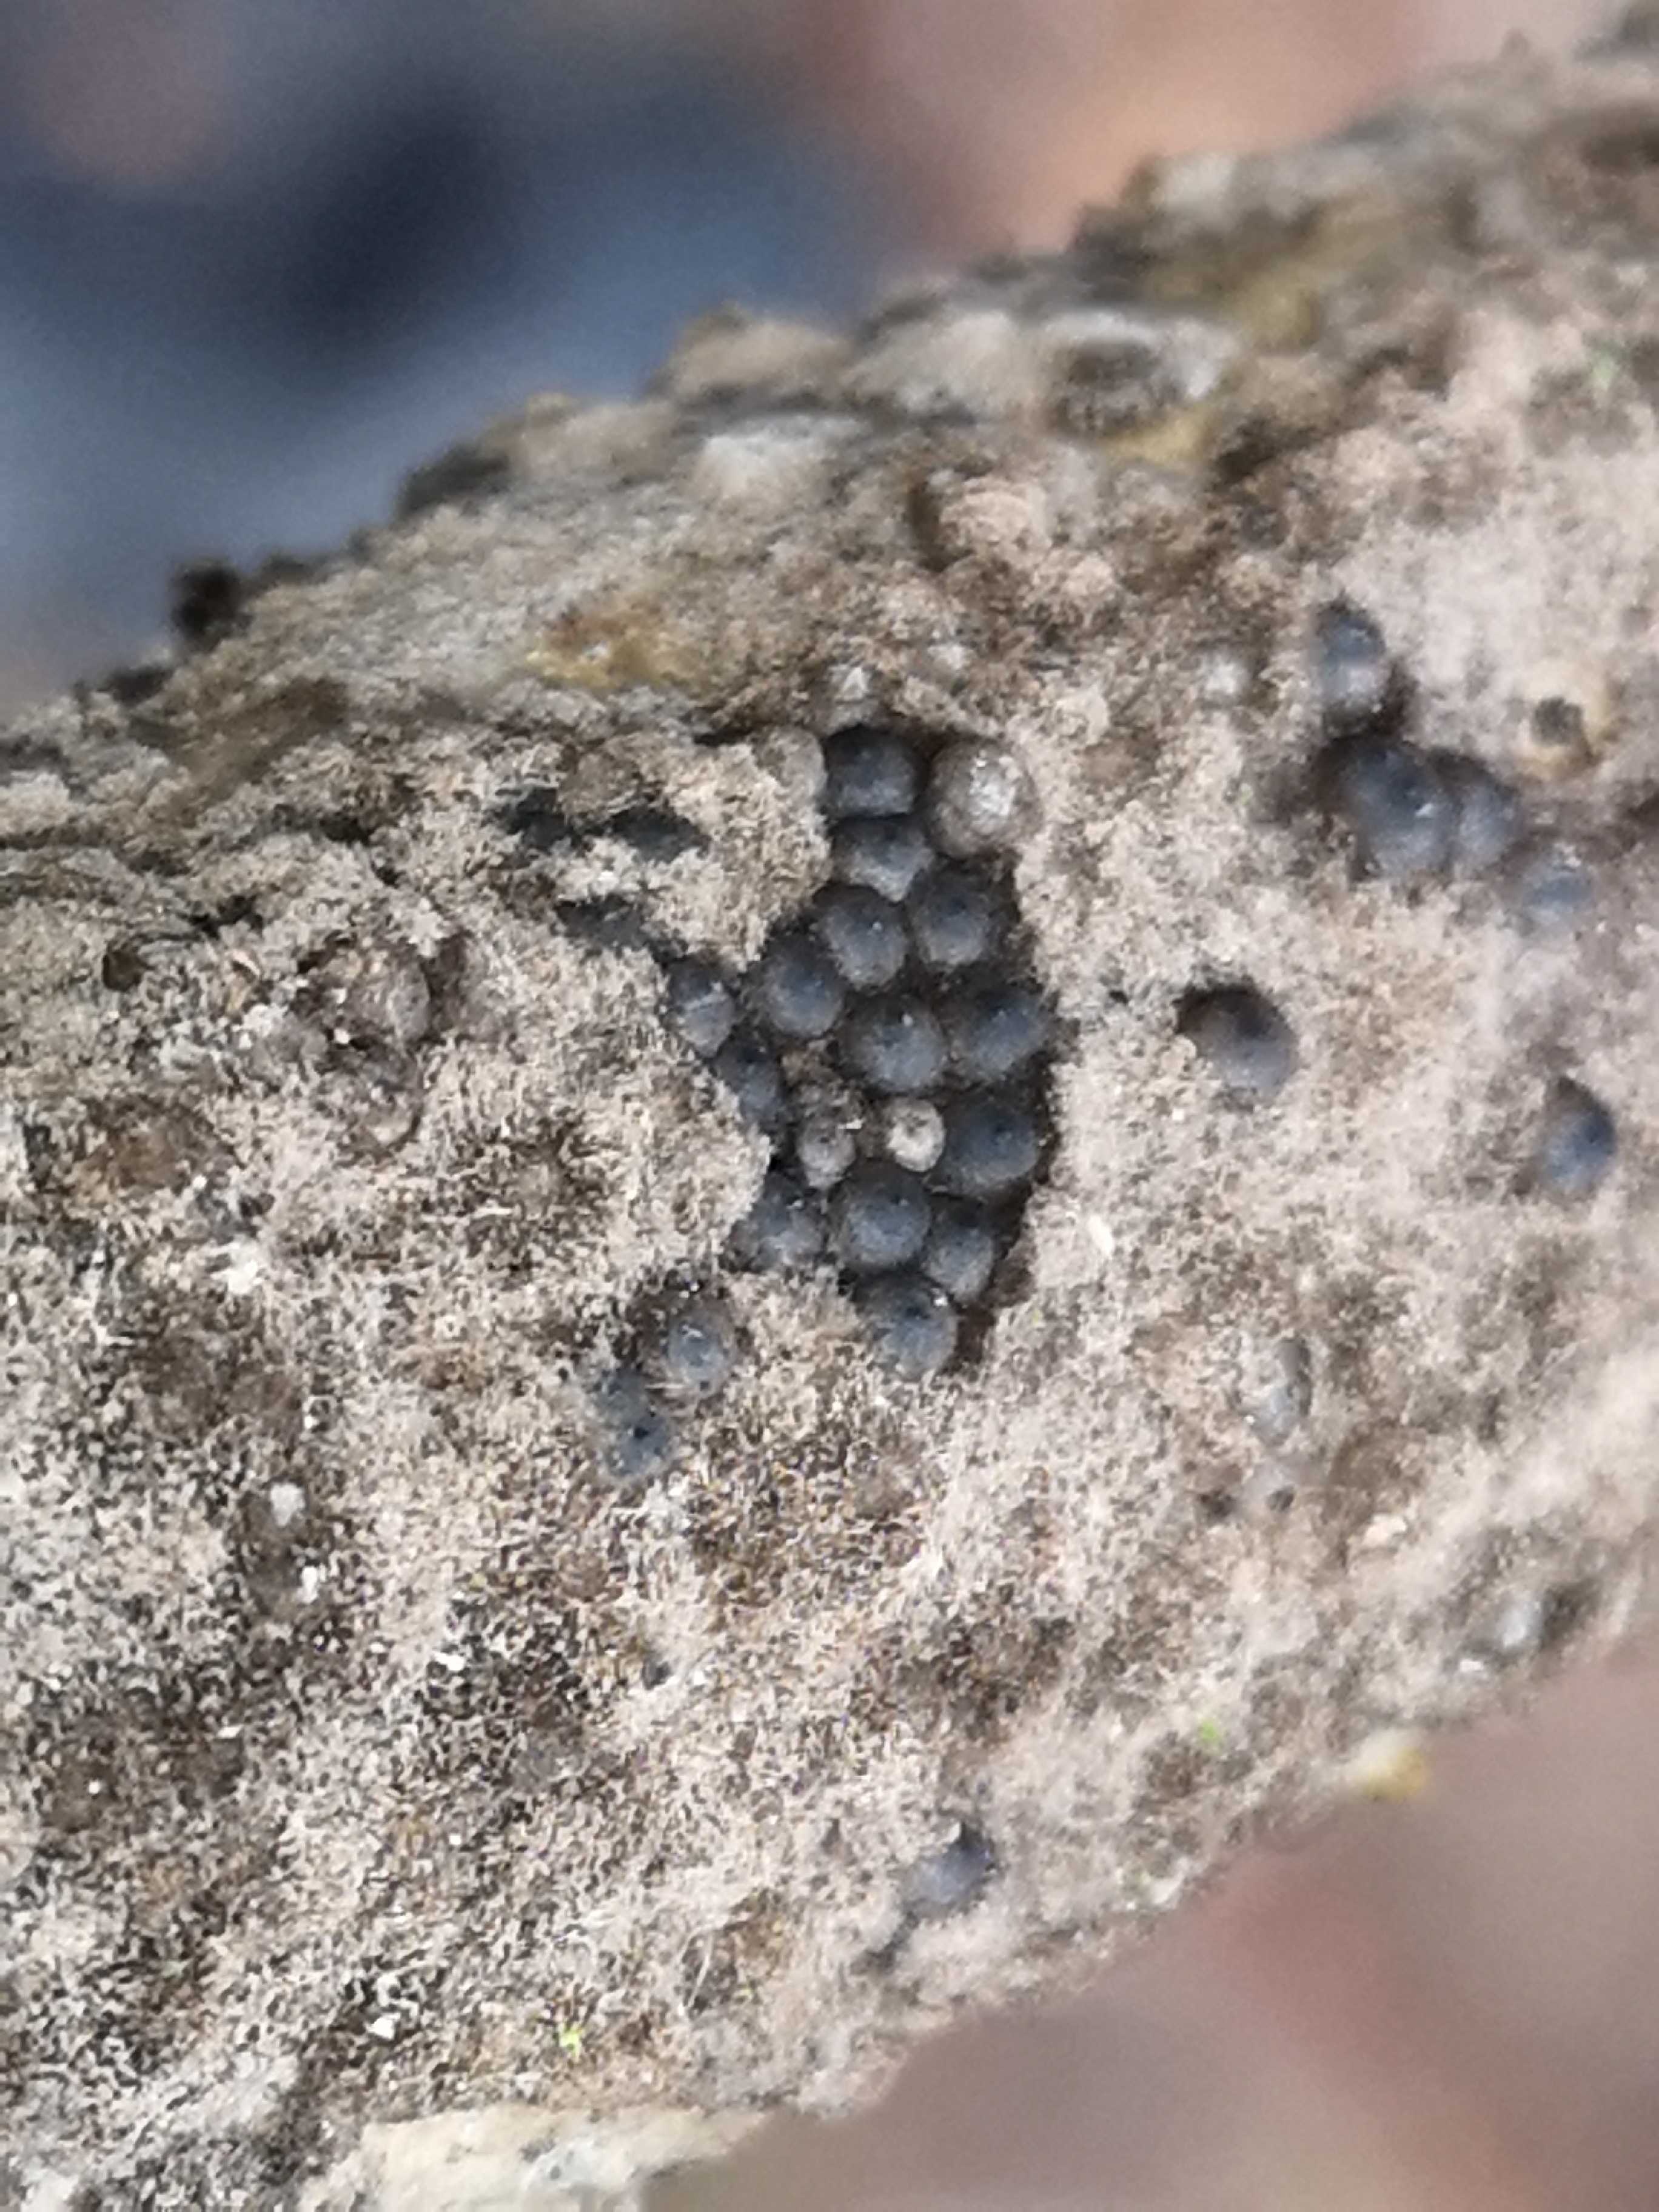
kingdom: Fungi
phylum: Ascomycota
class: Sordariomycetes
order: Xylariales
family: Xylariaceae
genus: Rosellinia
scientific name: Rosellinia aquila
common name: tykskallet kulkaviar
